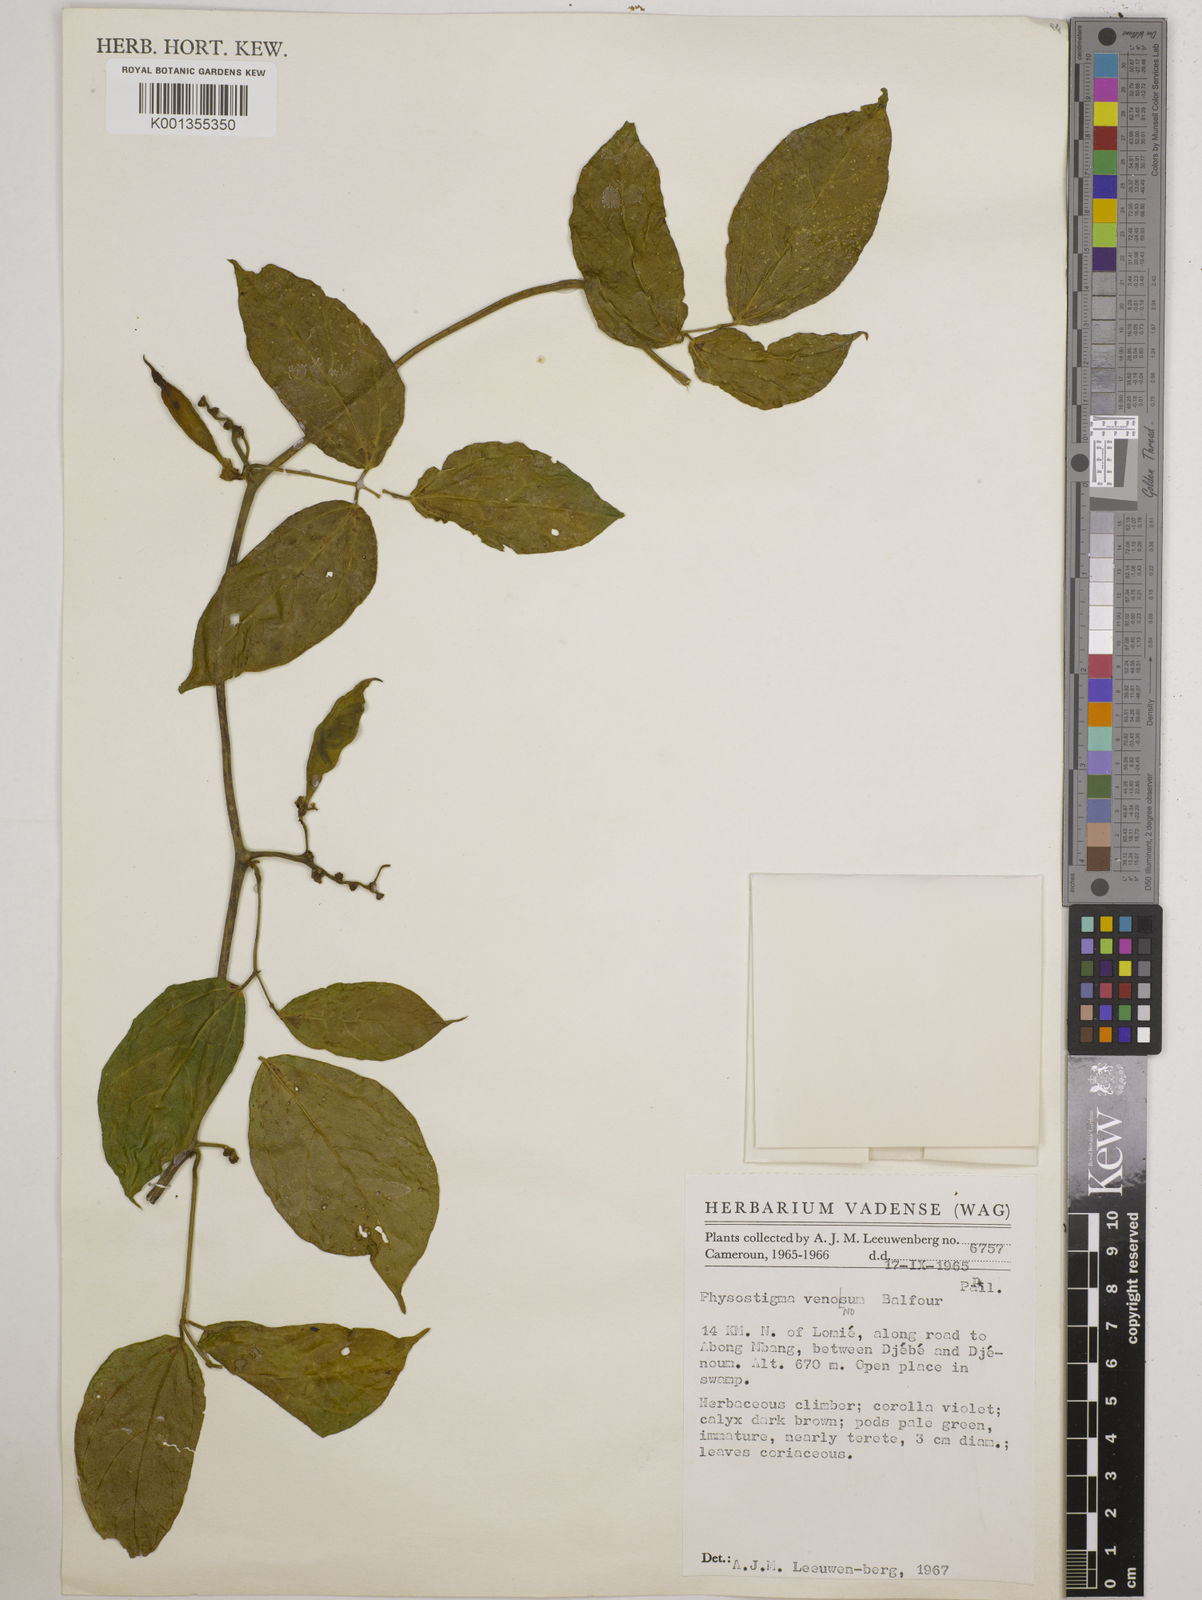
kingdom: Plantae
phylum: Tracheophyta
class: Magnoliopsida
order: Fabales
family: Fabaceae
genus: Physostigma
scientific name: Physostigma venenosum
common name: Calabar-bean
